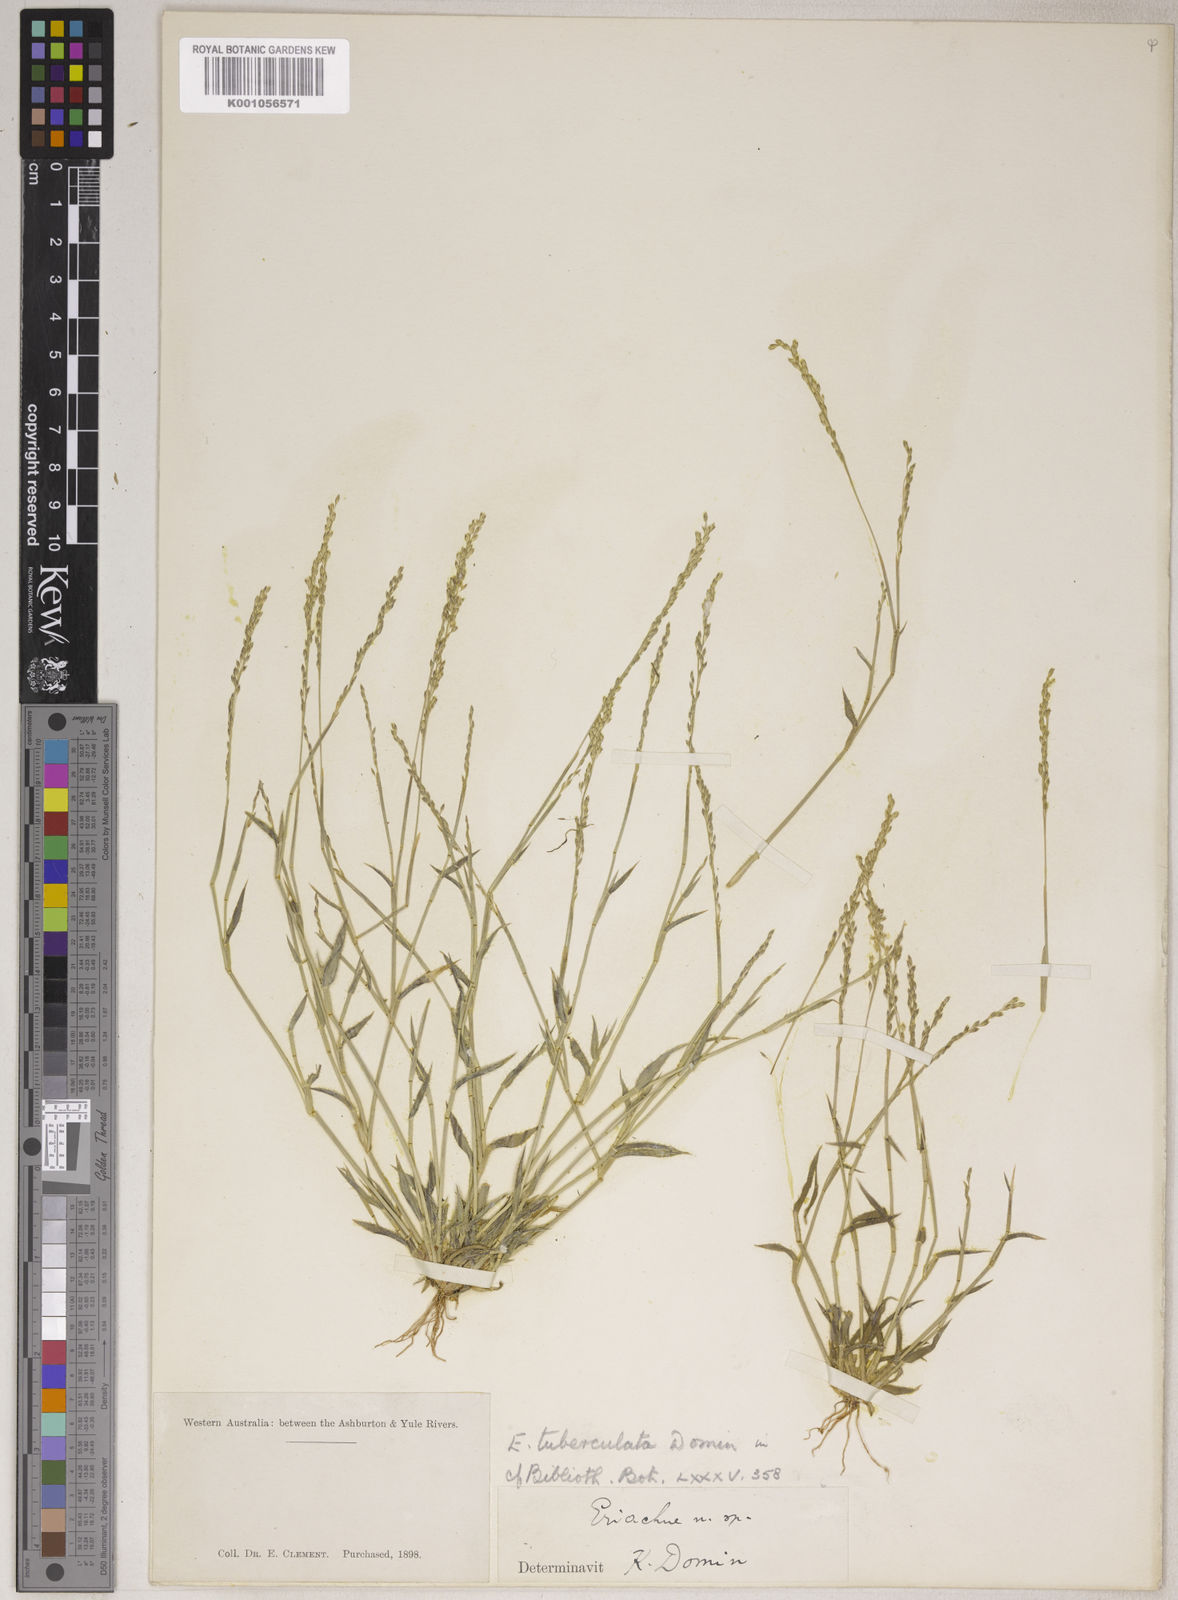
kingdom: Plantae
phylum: Tracheophyta
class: Liliopsida
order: Poales
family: Poaceae
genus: Eriachne
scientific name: Eriachne pulchella
